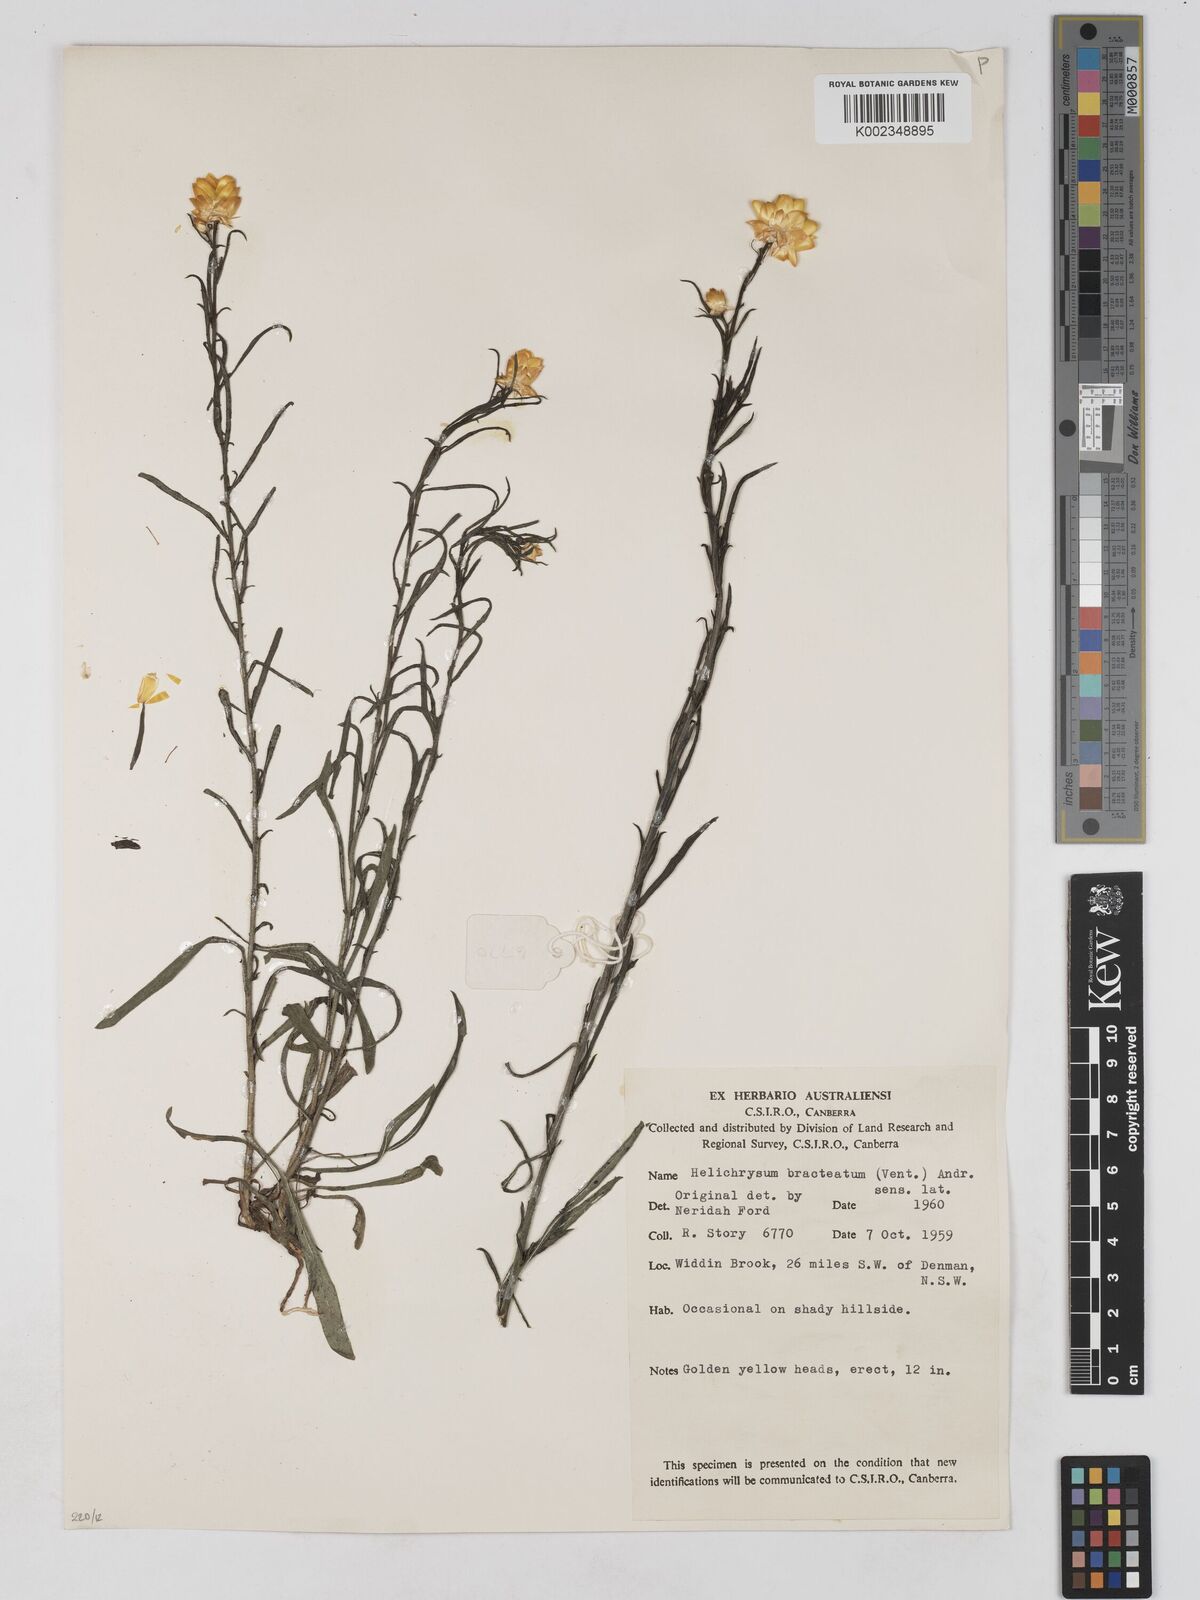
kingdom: Plantae
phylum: Tracheophyta
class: Magnoliopsida
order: Asterales
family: Asteraceae
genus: Xerochrysum
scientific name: Xerochrysum bracteatum
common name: Bracted strawflower
